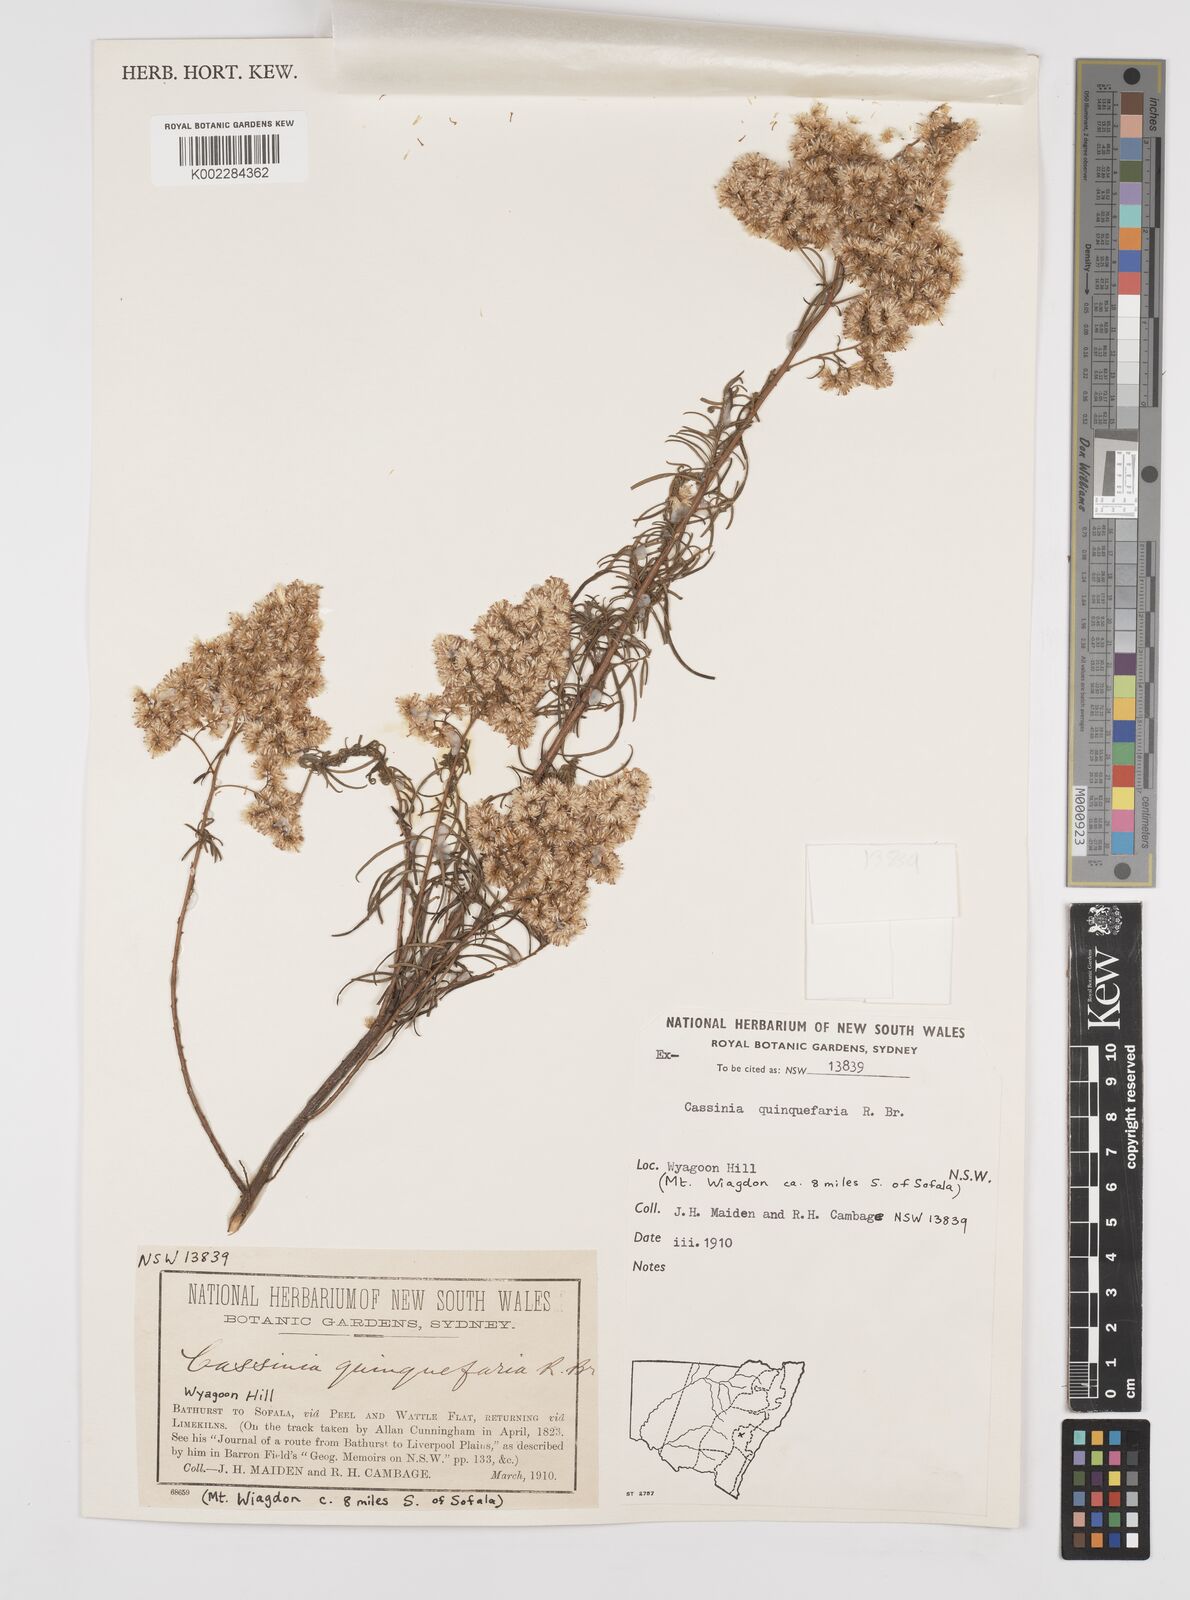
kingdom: Plantae
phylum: Tracheophyta
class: Magnoliopsida
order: Asterales
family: Asteraceae
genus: Cassinia
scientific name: Cassinia quinquefaria
